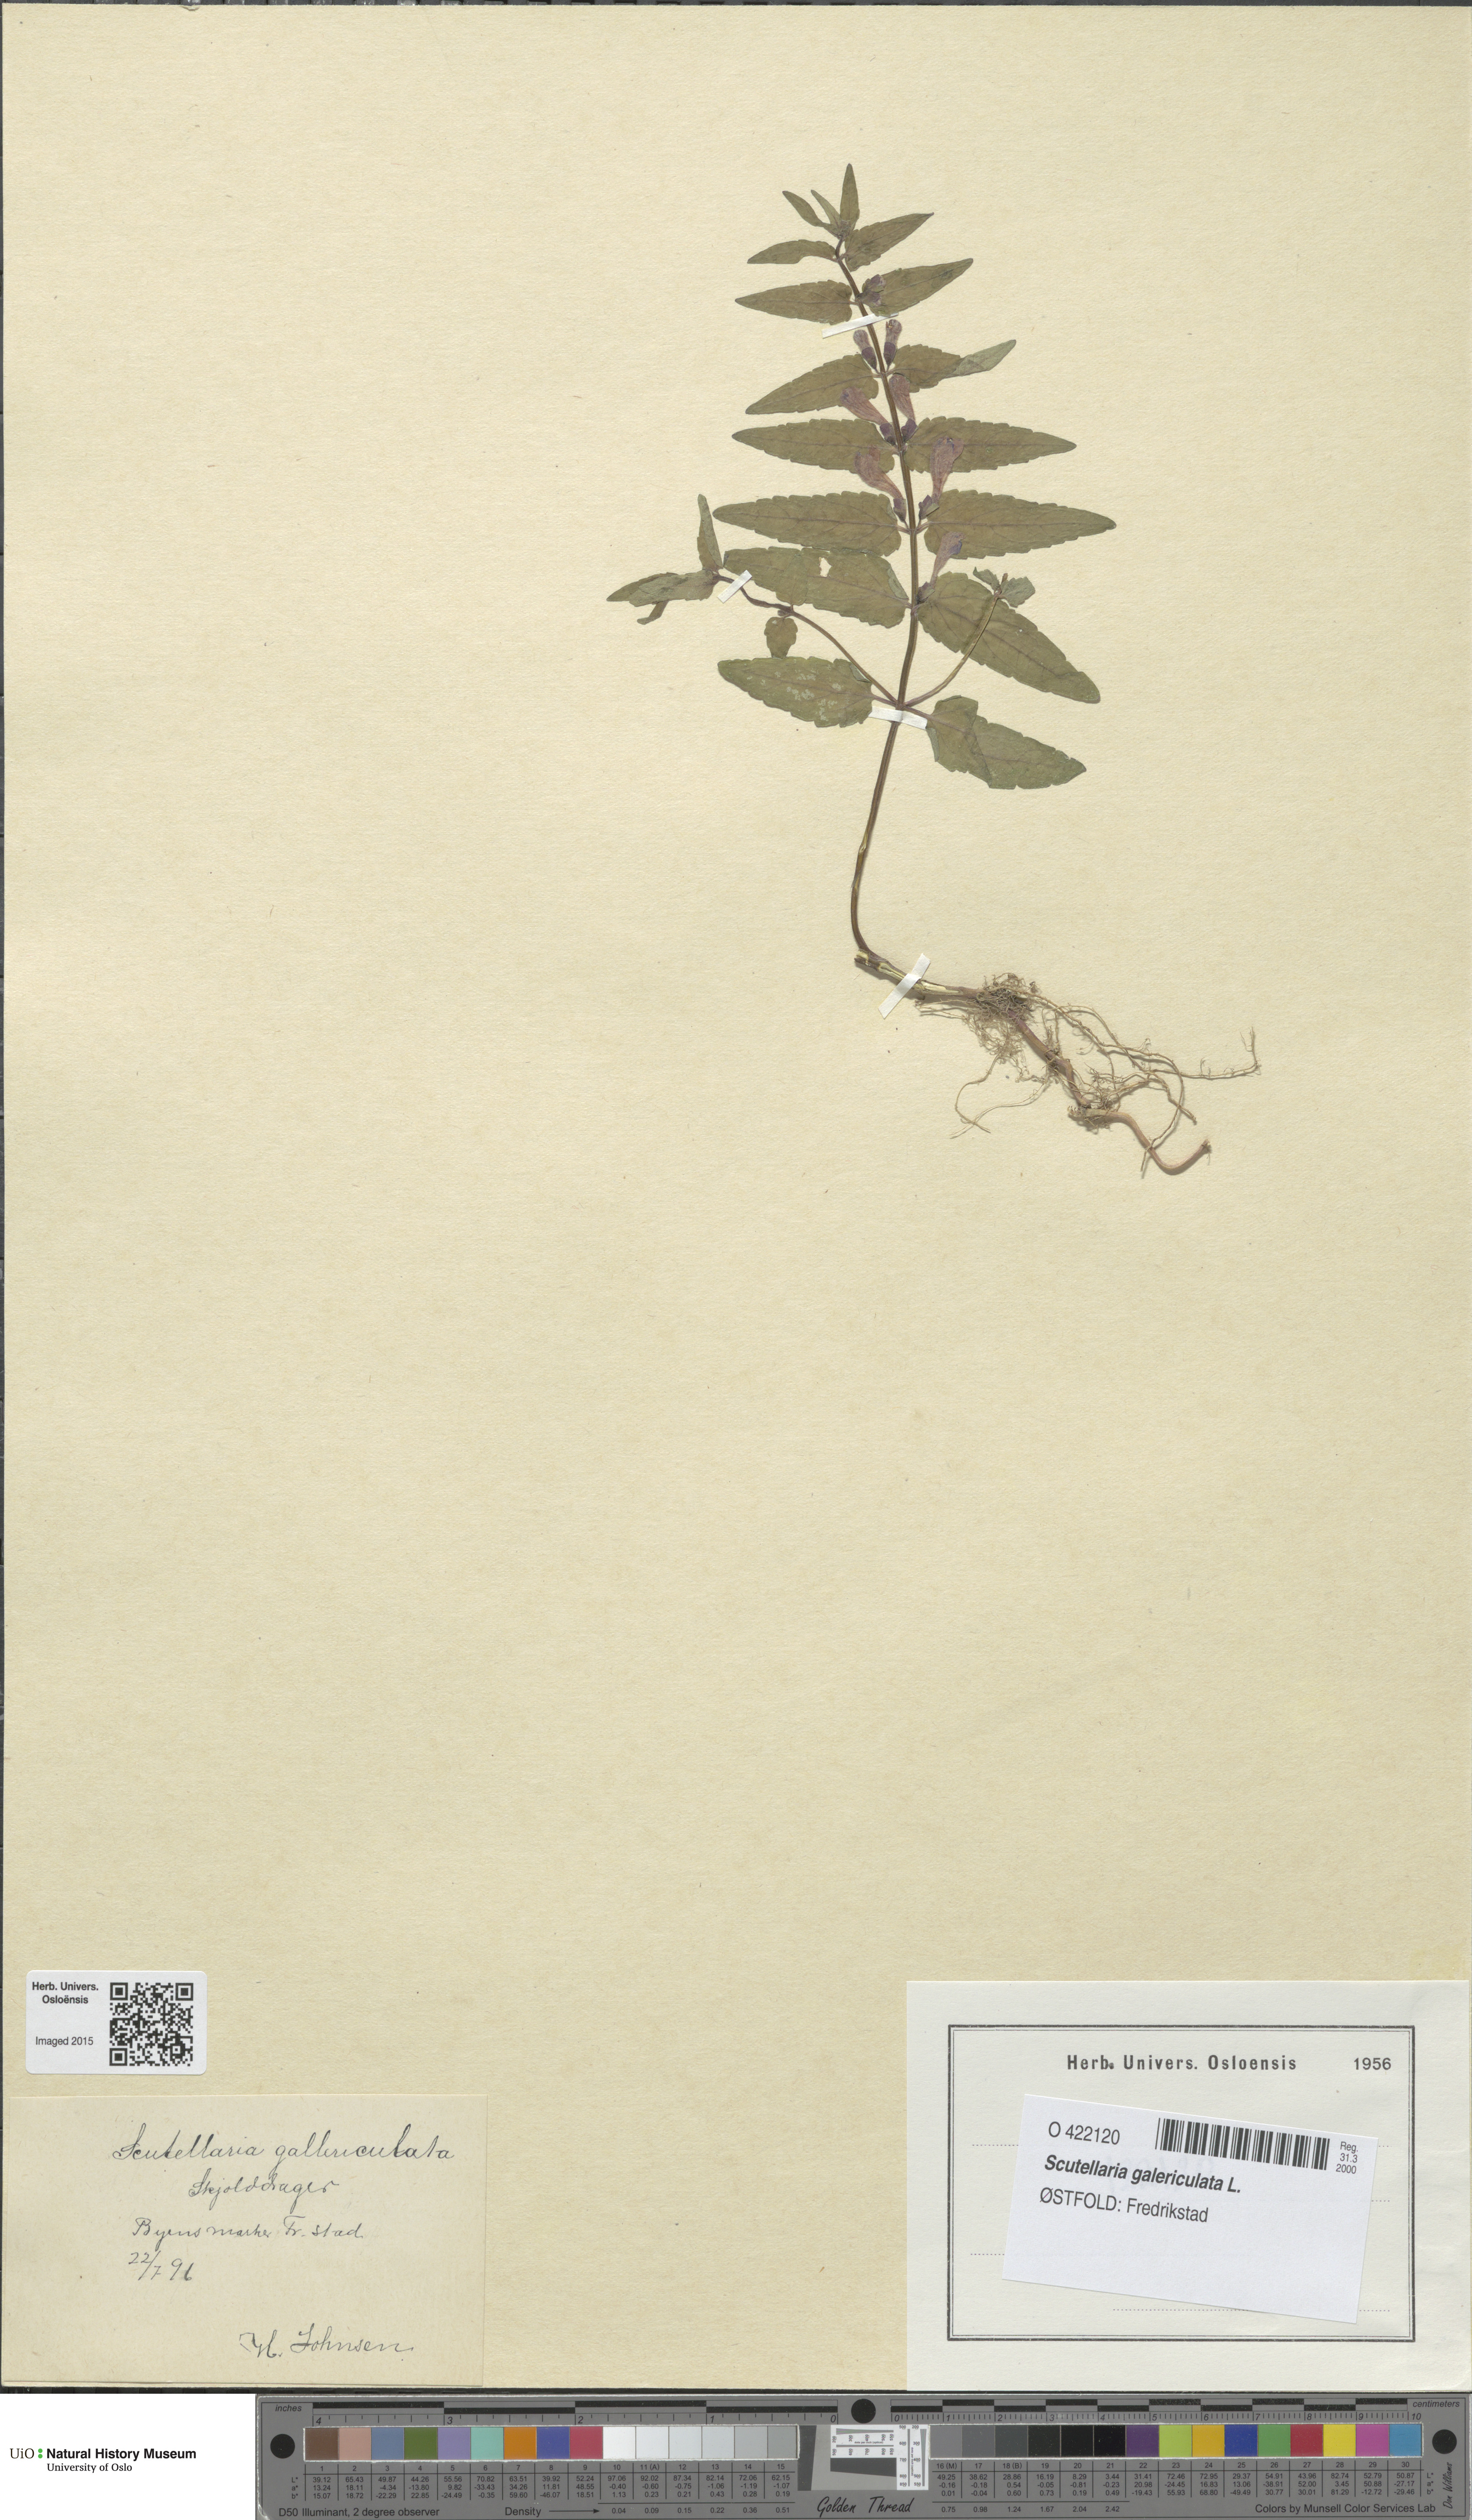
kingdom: Plantae
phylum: Tracheophyta
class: Magnoliopsida
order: Lamiales
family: Lamiaceae
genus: Scutellaria
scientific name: Scutellaria galericulata
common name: Skullcap
